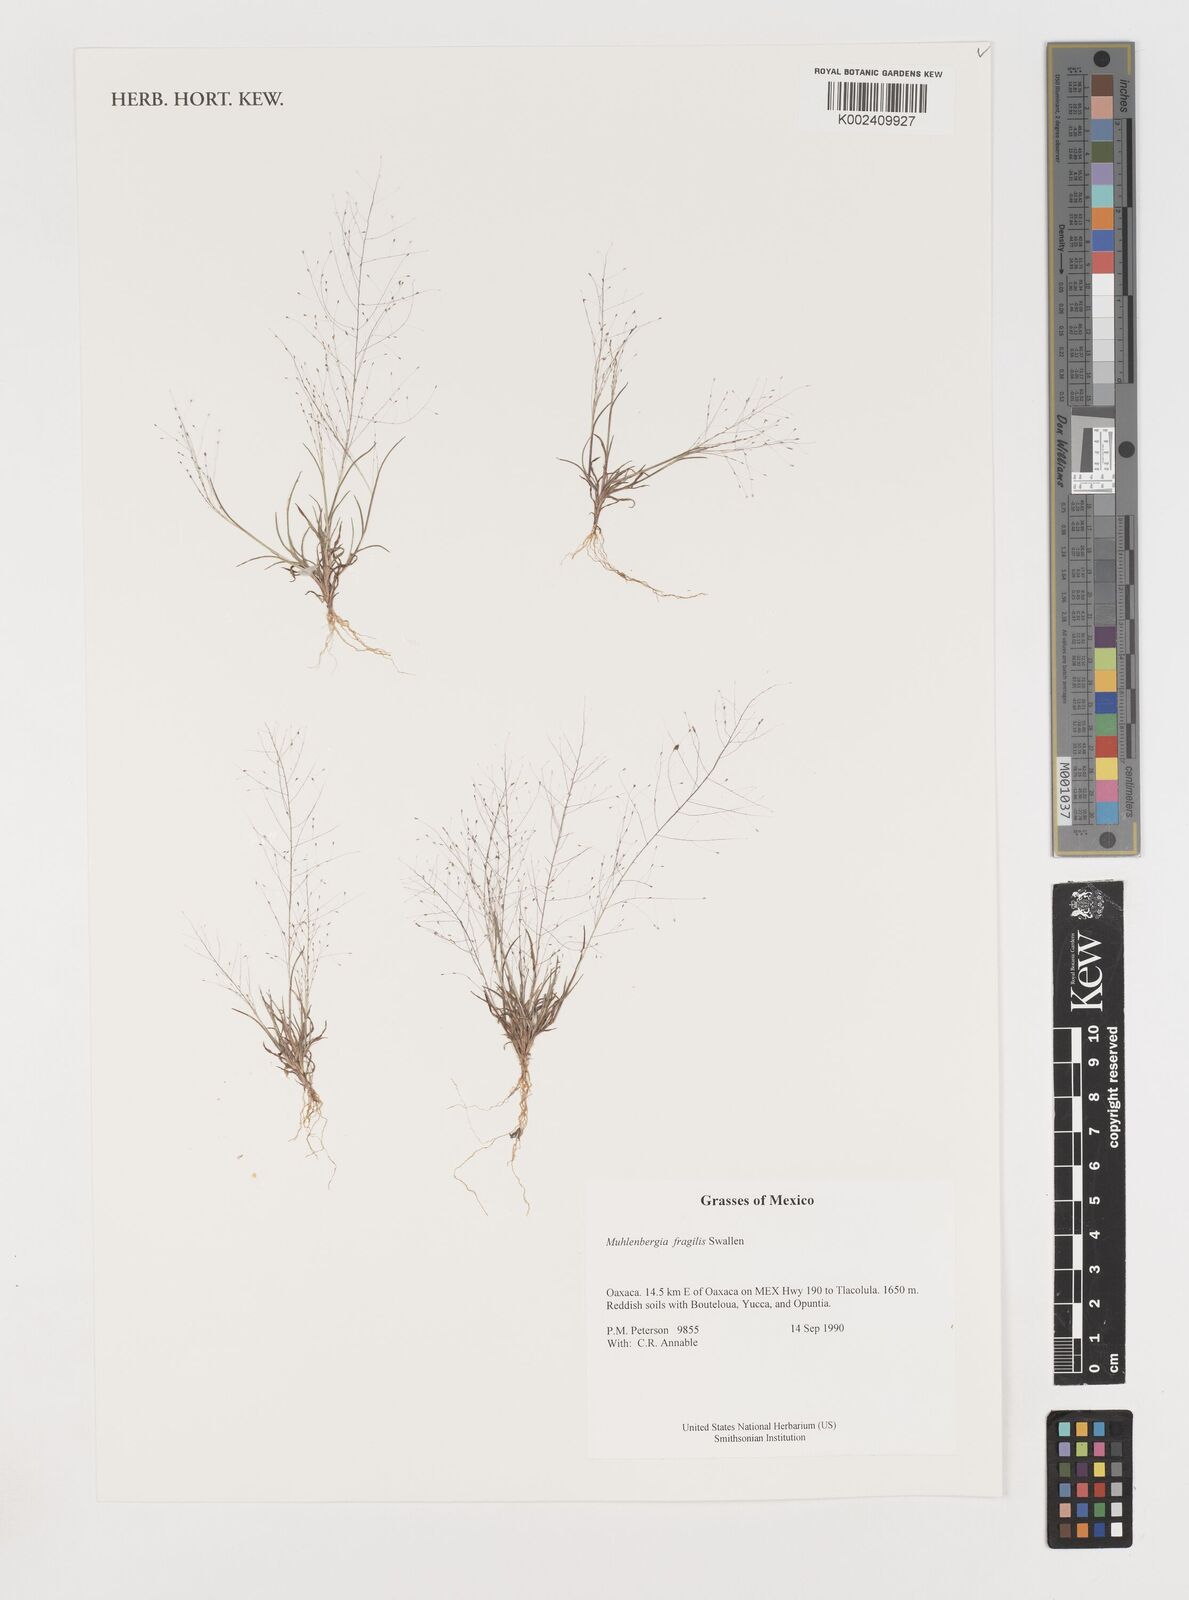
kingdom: Plantae
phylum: Tracheophyta
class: Liliopsida
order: Poales
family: Poaceae
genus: Muhlenbergia
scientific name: Muhlenbergia fragilis
